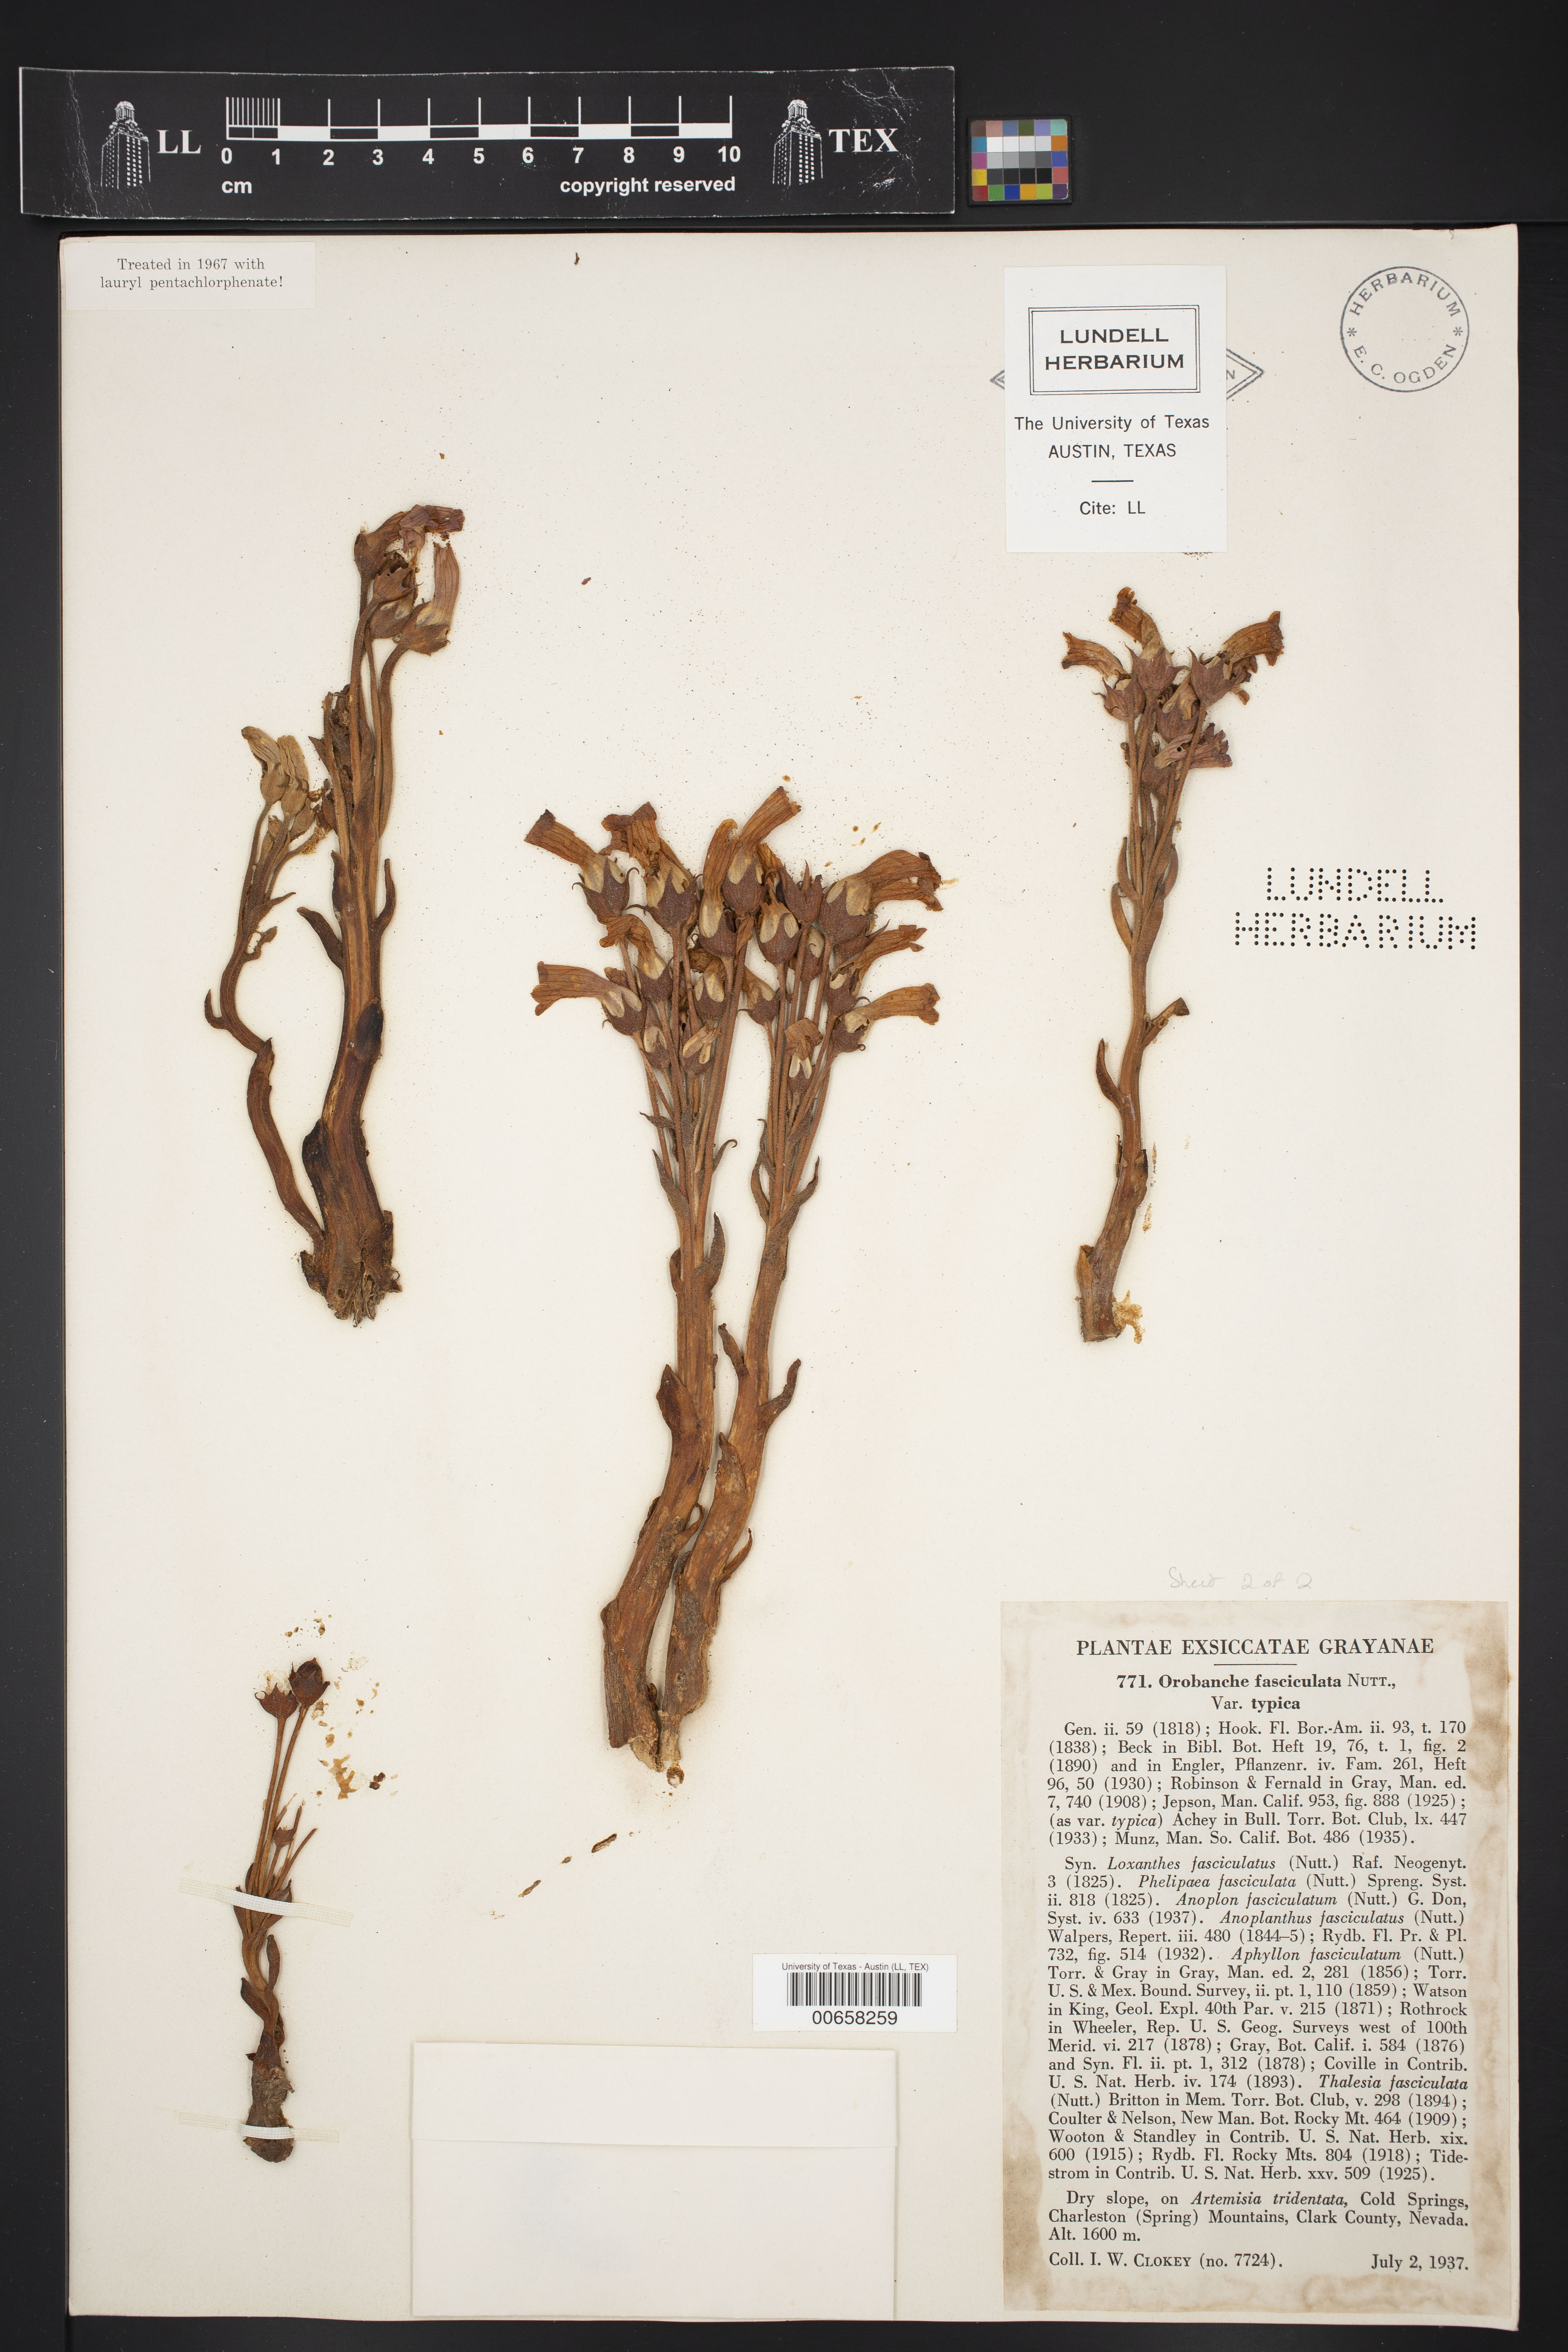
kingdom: Plantae
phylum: Tracheophyta
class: Magnoliopsida
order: Lamiales
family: Orobanchaceae
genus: Aphyllon
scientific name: Aphyllon fasciculatum
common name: Clustered broomrape
